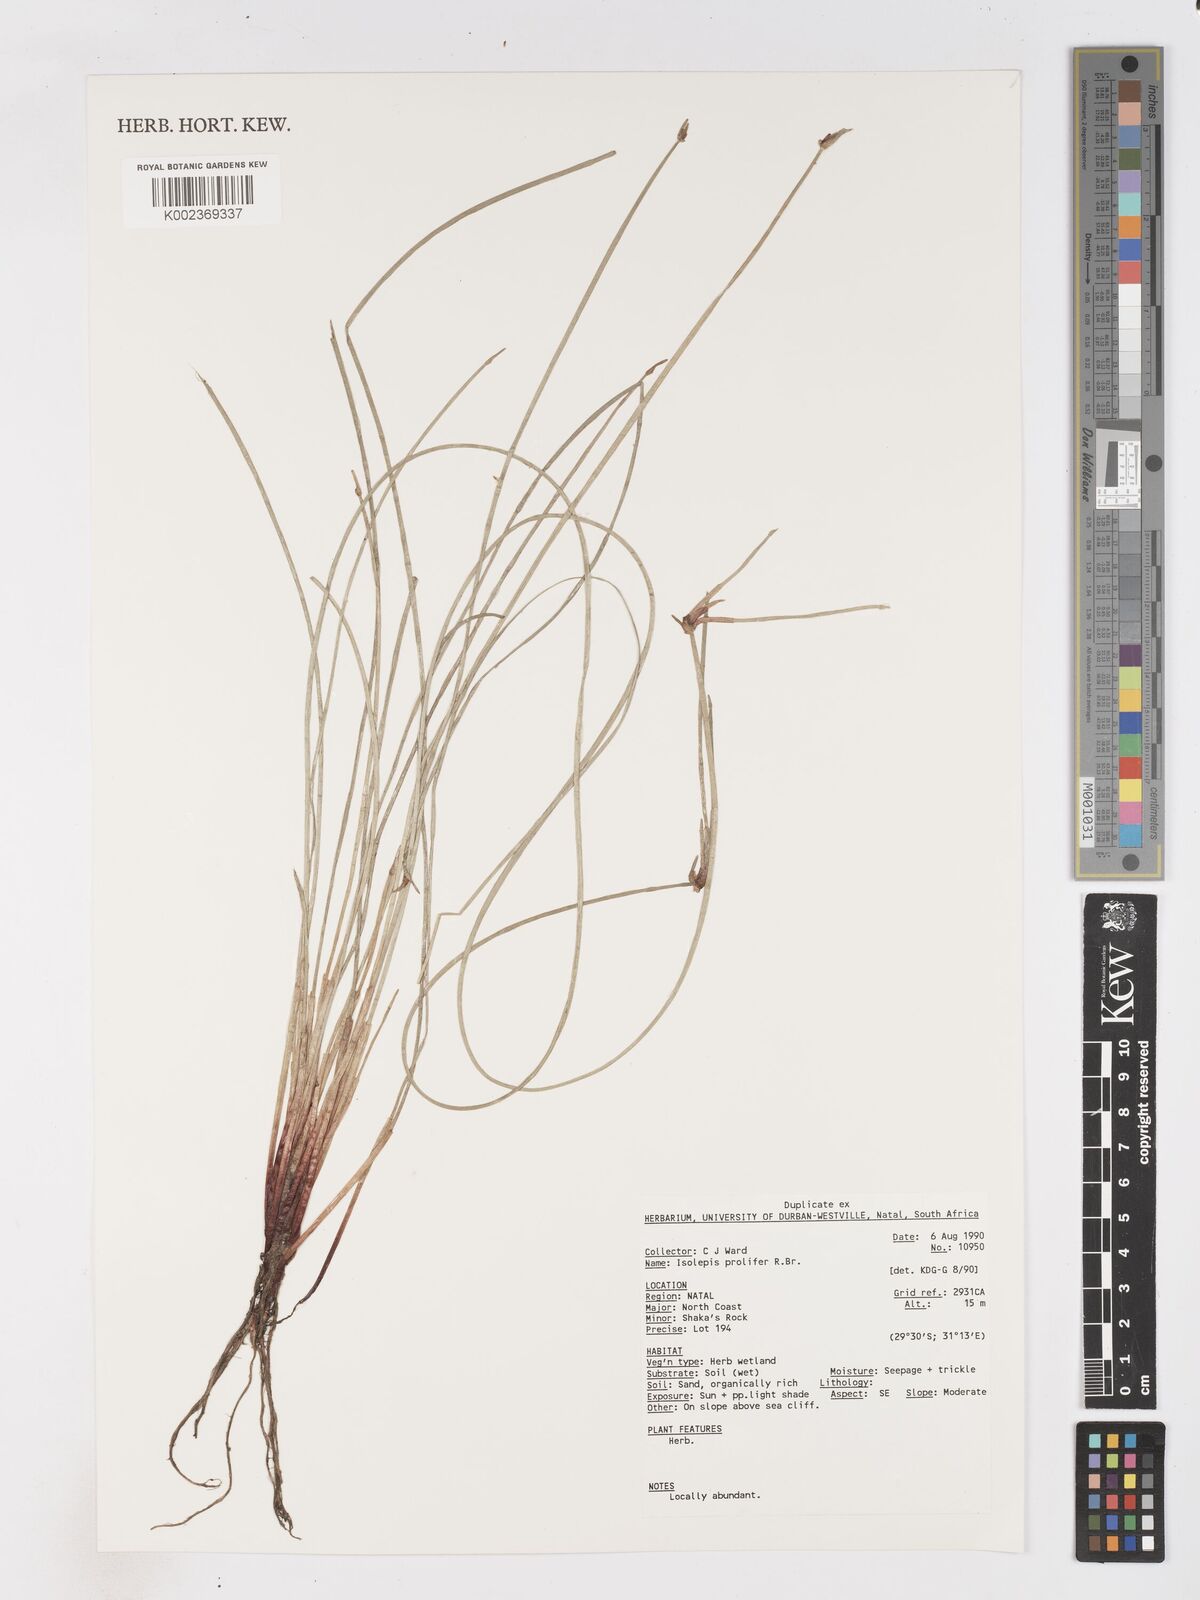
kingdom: Plantae
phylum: Tracheophyta
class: Liliopsida
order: Poales
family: Cyperaceae
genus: Isolepis
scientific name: Isolepis prolifera
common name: Proliferating bulrush
